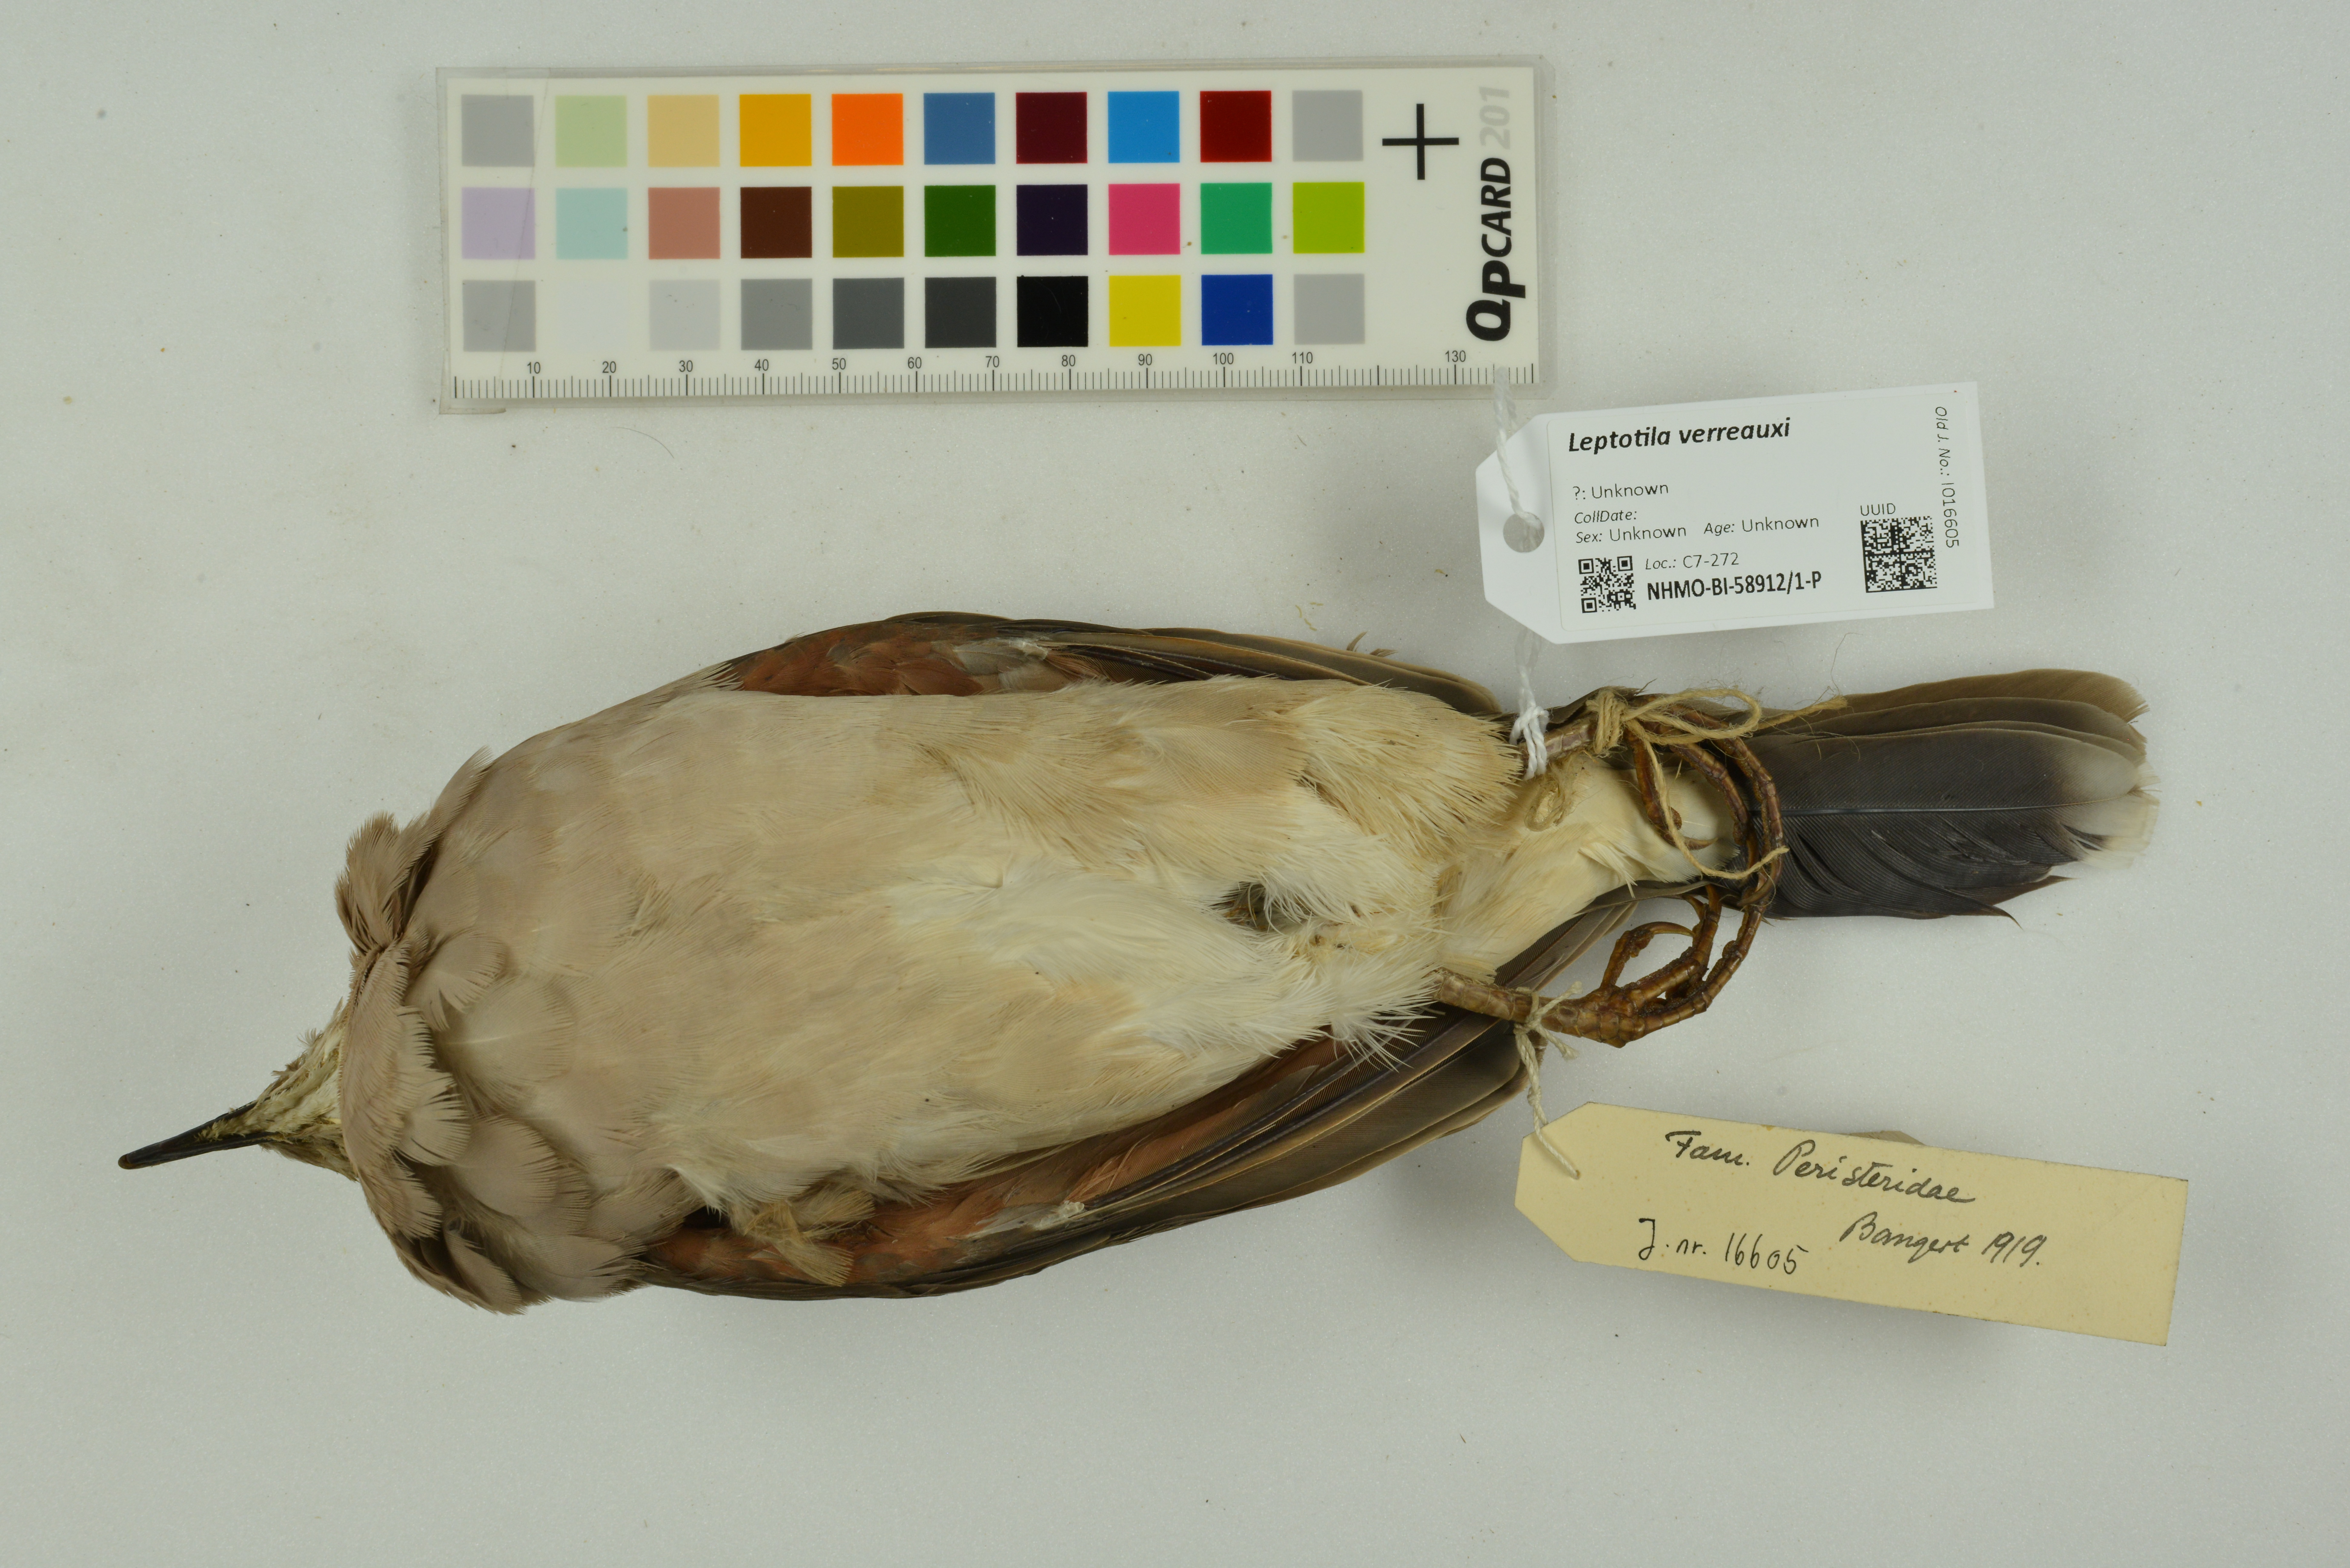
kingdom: Animalia
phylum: Chordata
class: Aves
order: Columbiformes
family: Columbidae
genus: Leptotila
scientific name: Leptotila verreauxi
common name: White-tipped dove
